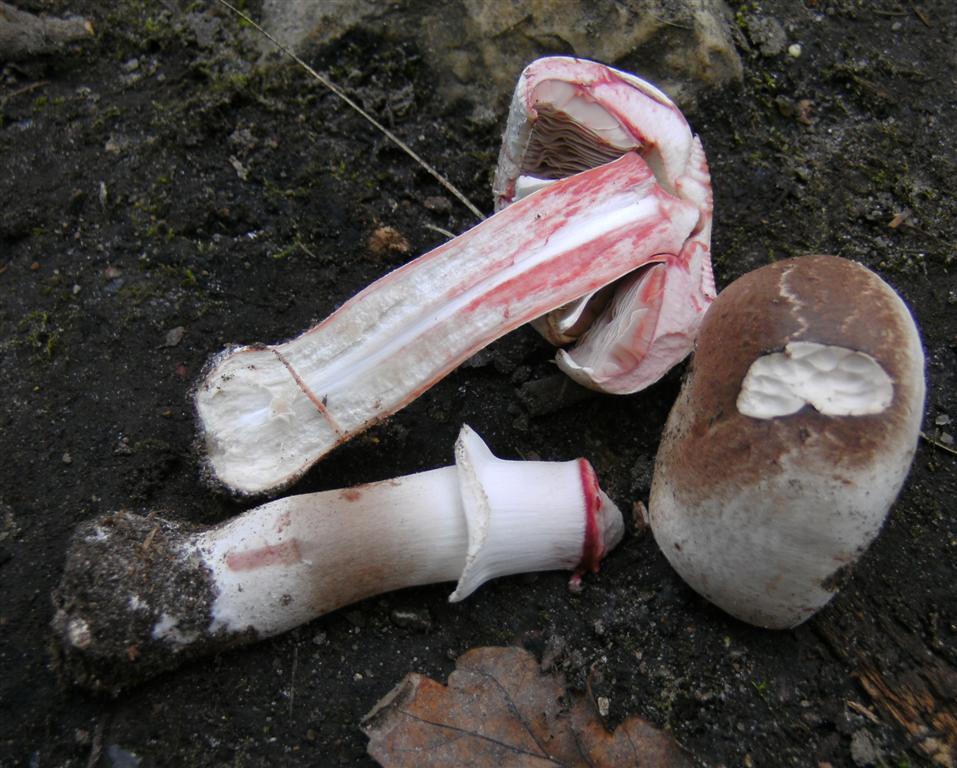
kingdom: Fungi
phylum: Basidiomycota
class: Agaricomycetes
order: Agaricales
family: Agaricaceae
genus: Agaricus
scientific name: Agaricus sylvaticus
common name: lille blod-champignon
